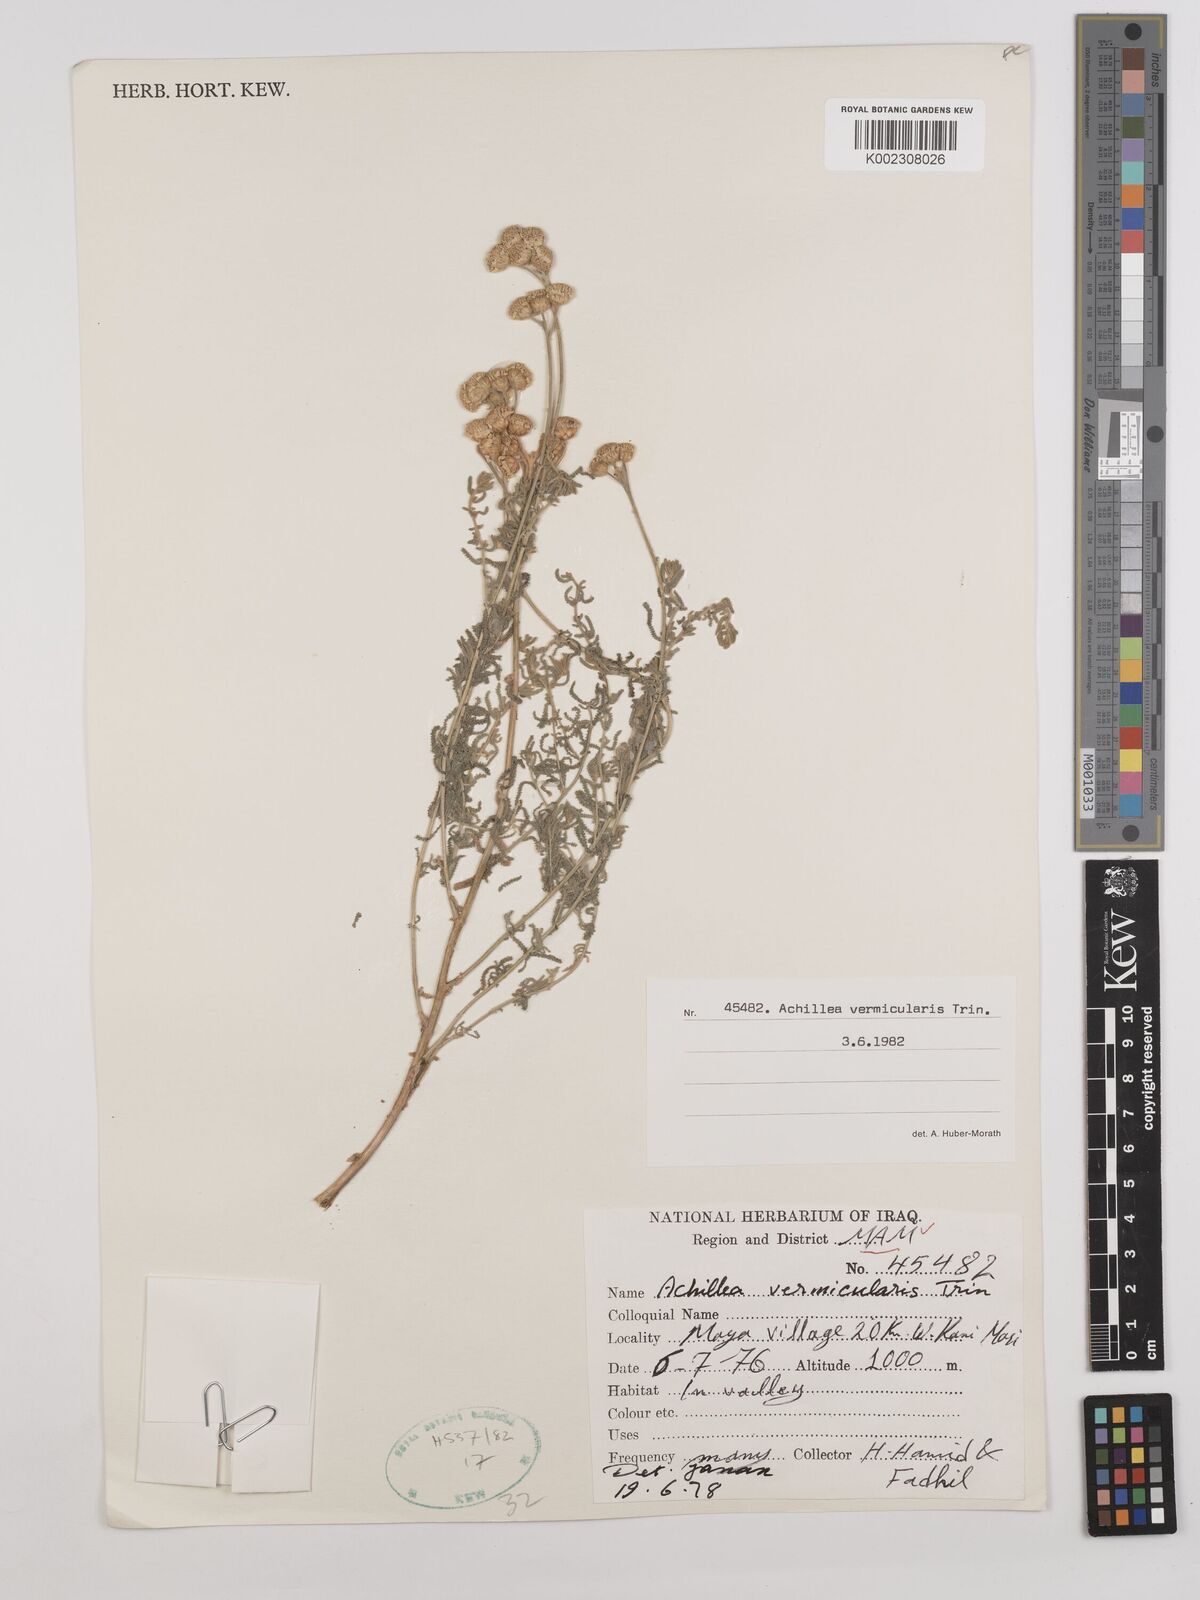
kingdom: Plantae
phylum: Tracheophyta
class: Magnoliopsida
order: Asterales
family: Asteraceae
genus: Achillea
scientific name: Achillea vermicularis
